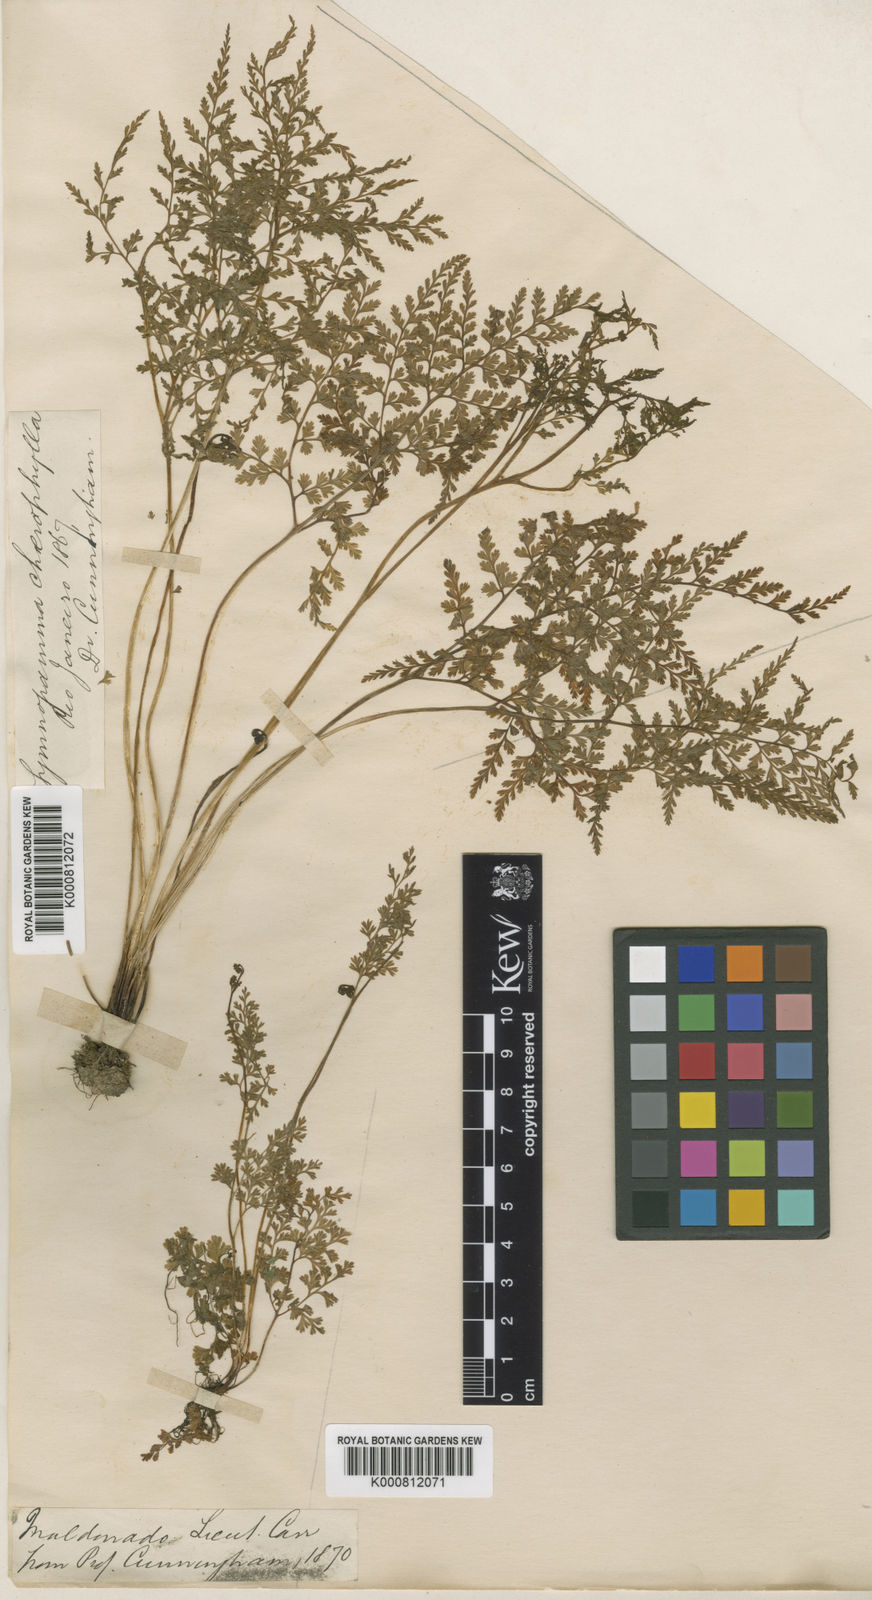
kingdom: Plantae
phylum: Tracheophyta
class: Polypodiopsida
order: Polypodiales
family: Pteridaceae
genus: Gastoniella
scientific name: Gastoniella chaerophylla
